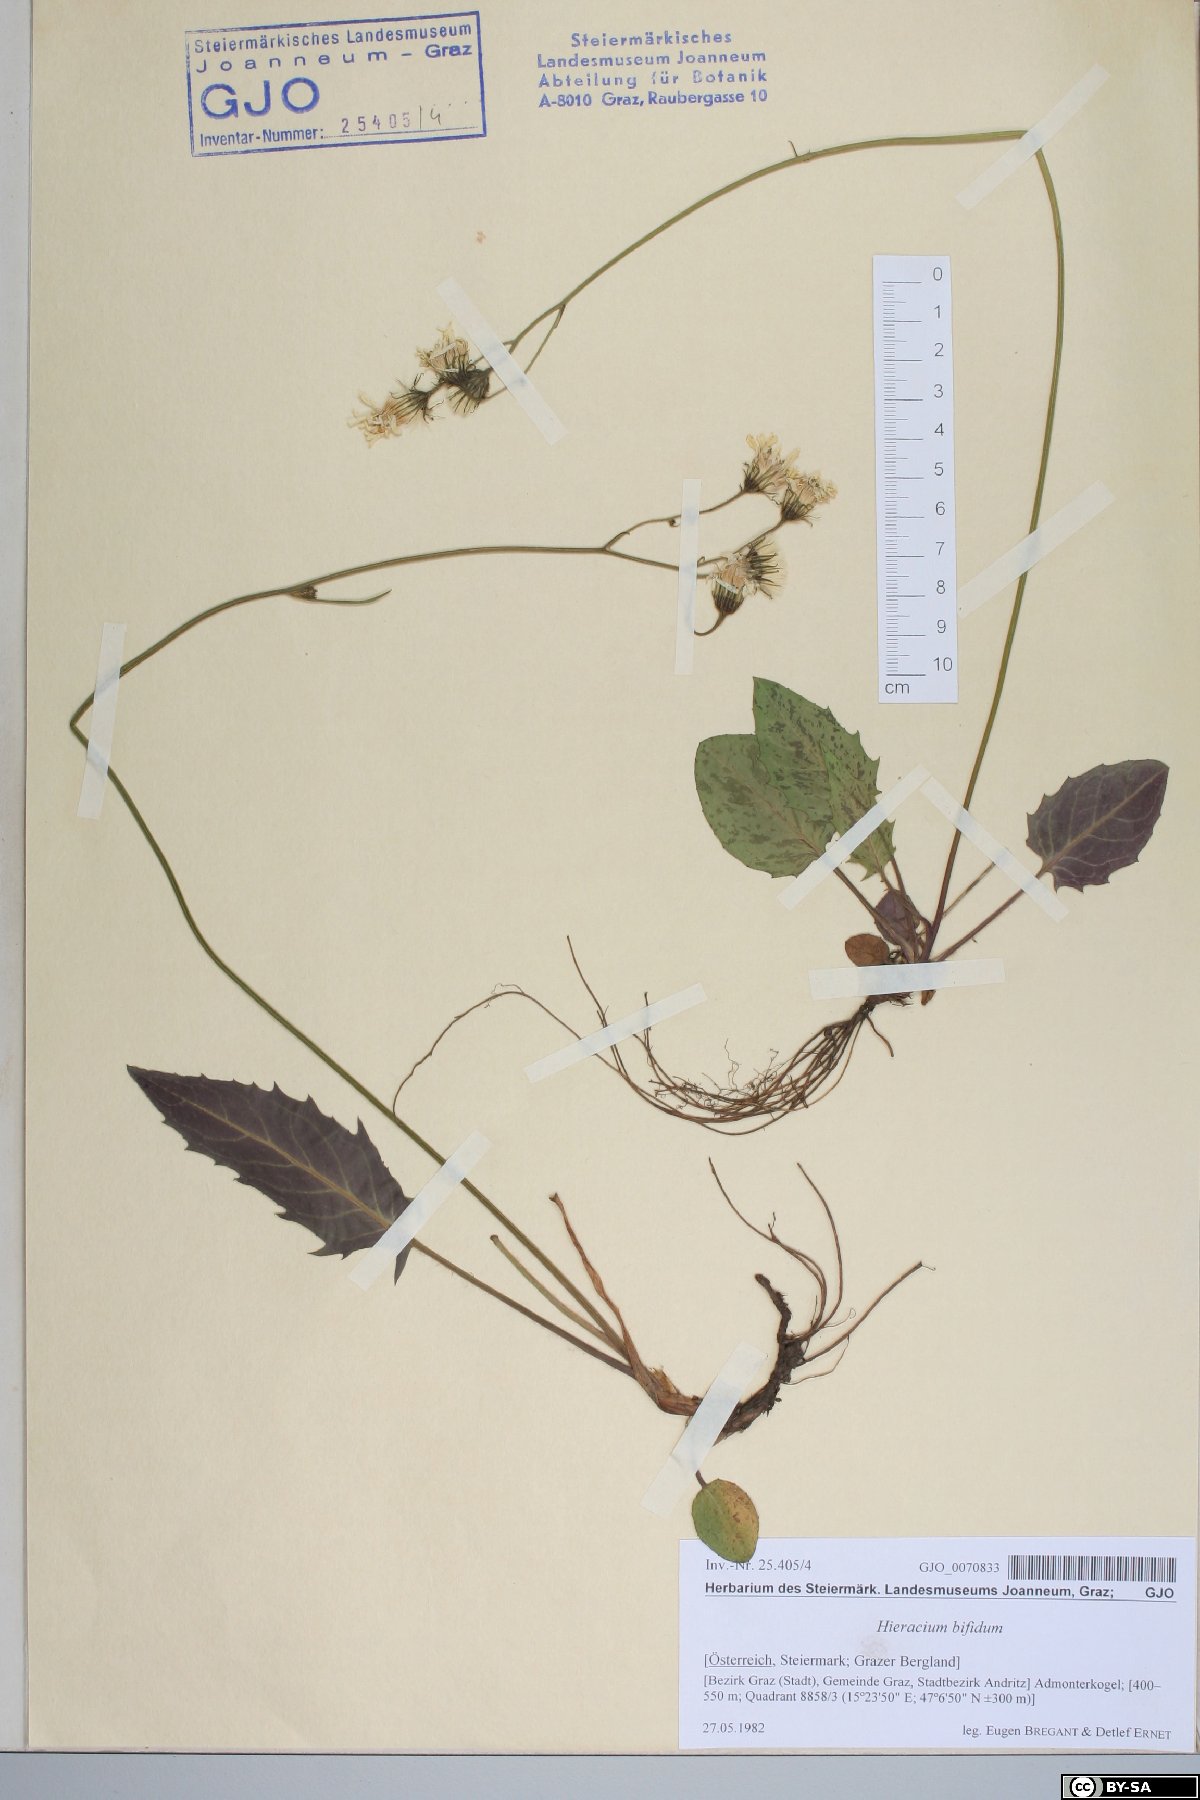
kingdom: Plantae
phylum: Tracheophyta
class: Magnoliopsida
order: Asterales
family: Asteraceae
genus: Hieracium
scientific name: Hieracium bifidum
